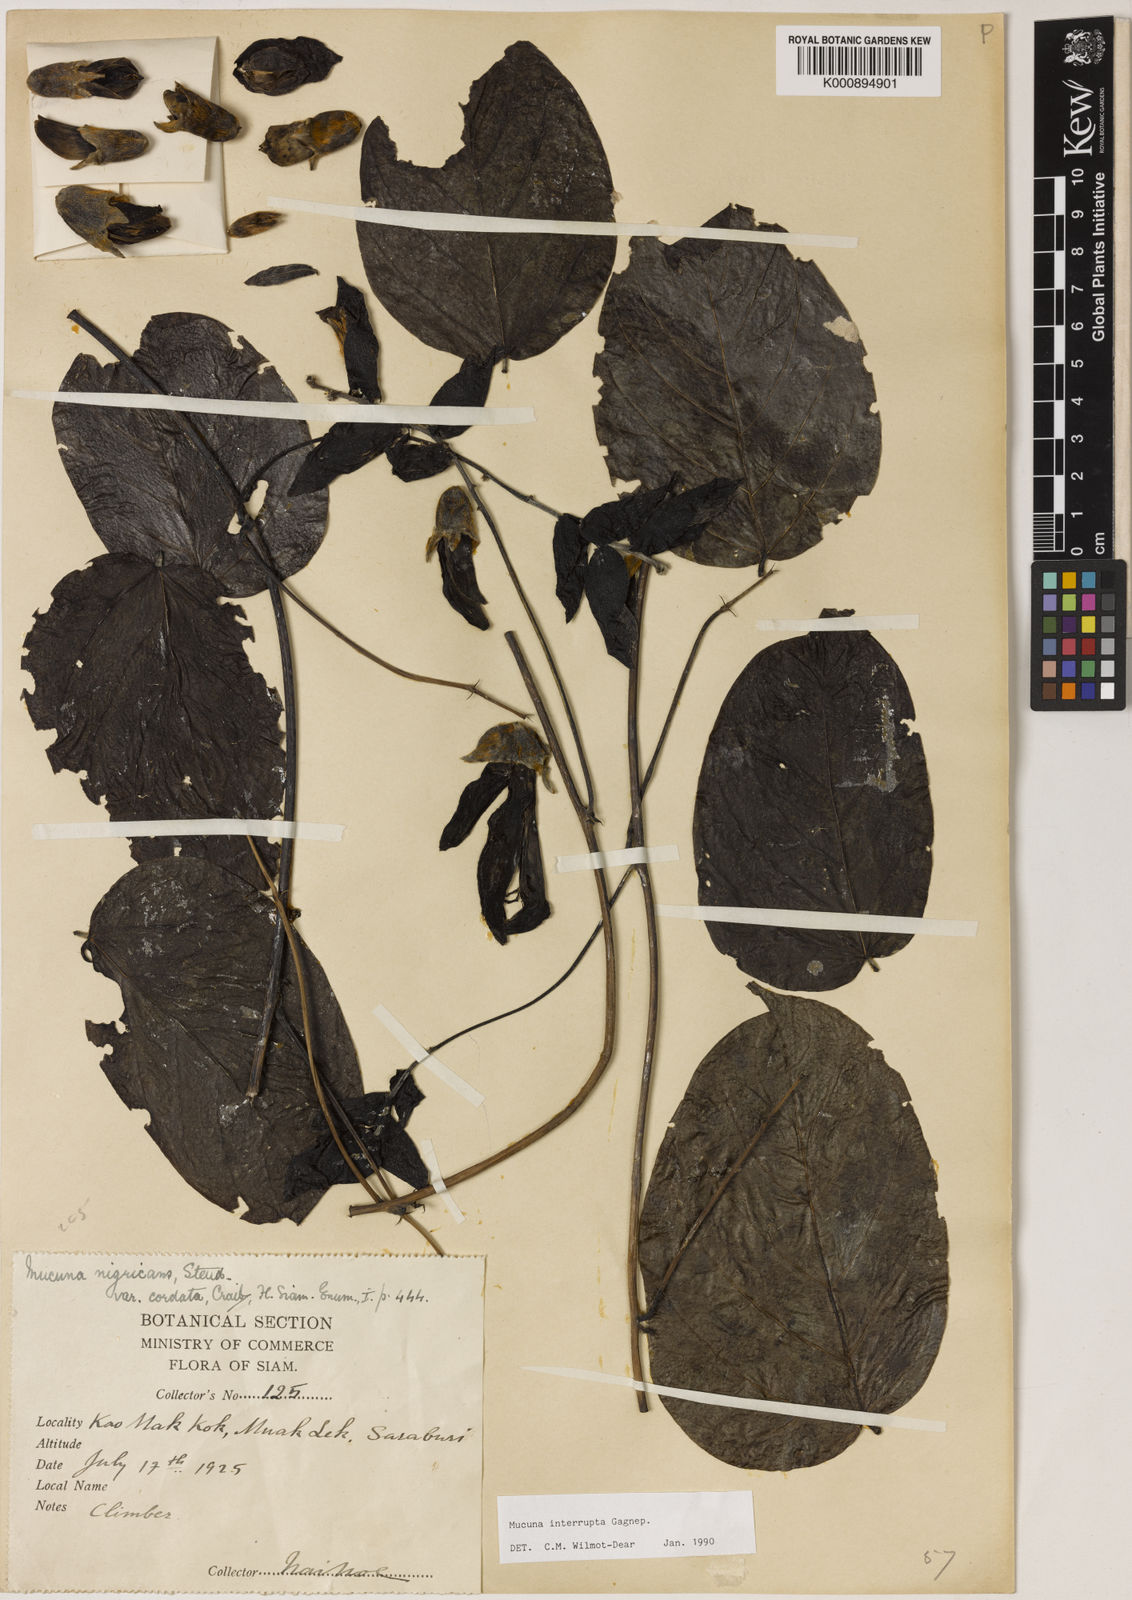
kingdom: Plantae
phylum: Tracheophyta
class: Magnoliopsida
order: Fabales
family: Fabaceae
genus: Mucuna
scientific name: Mucuna interrupta
